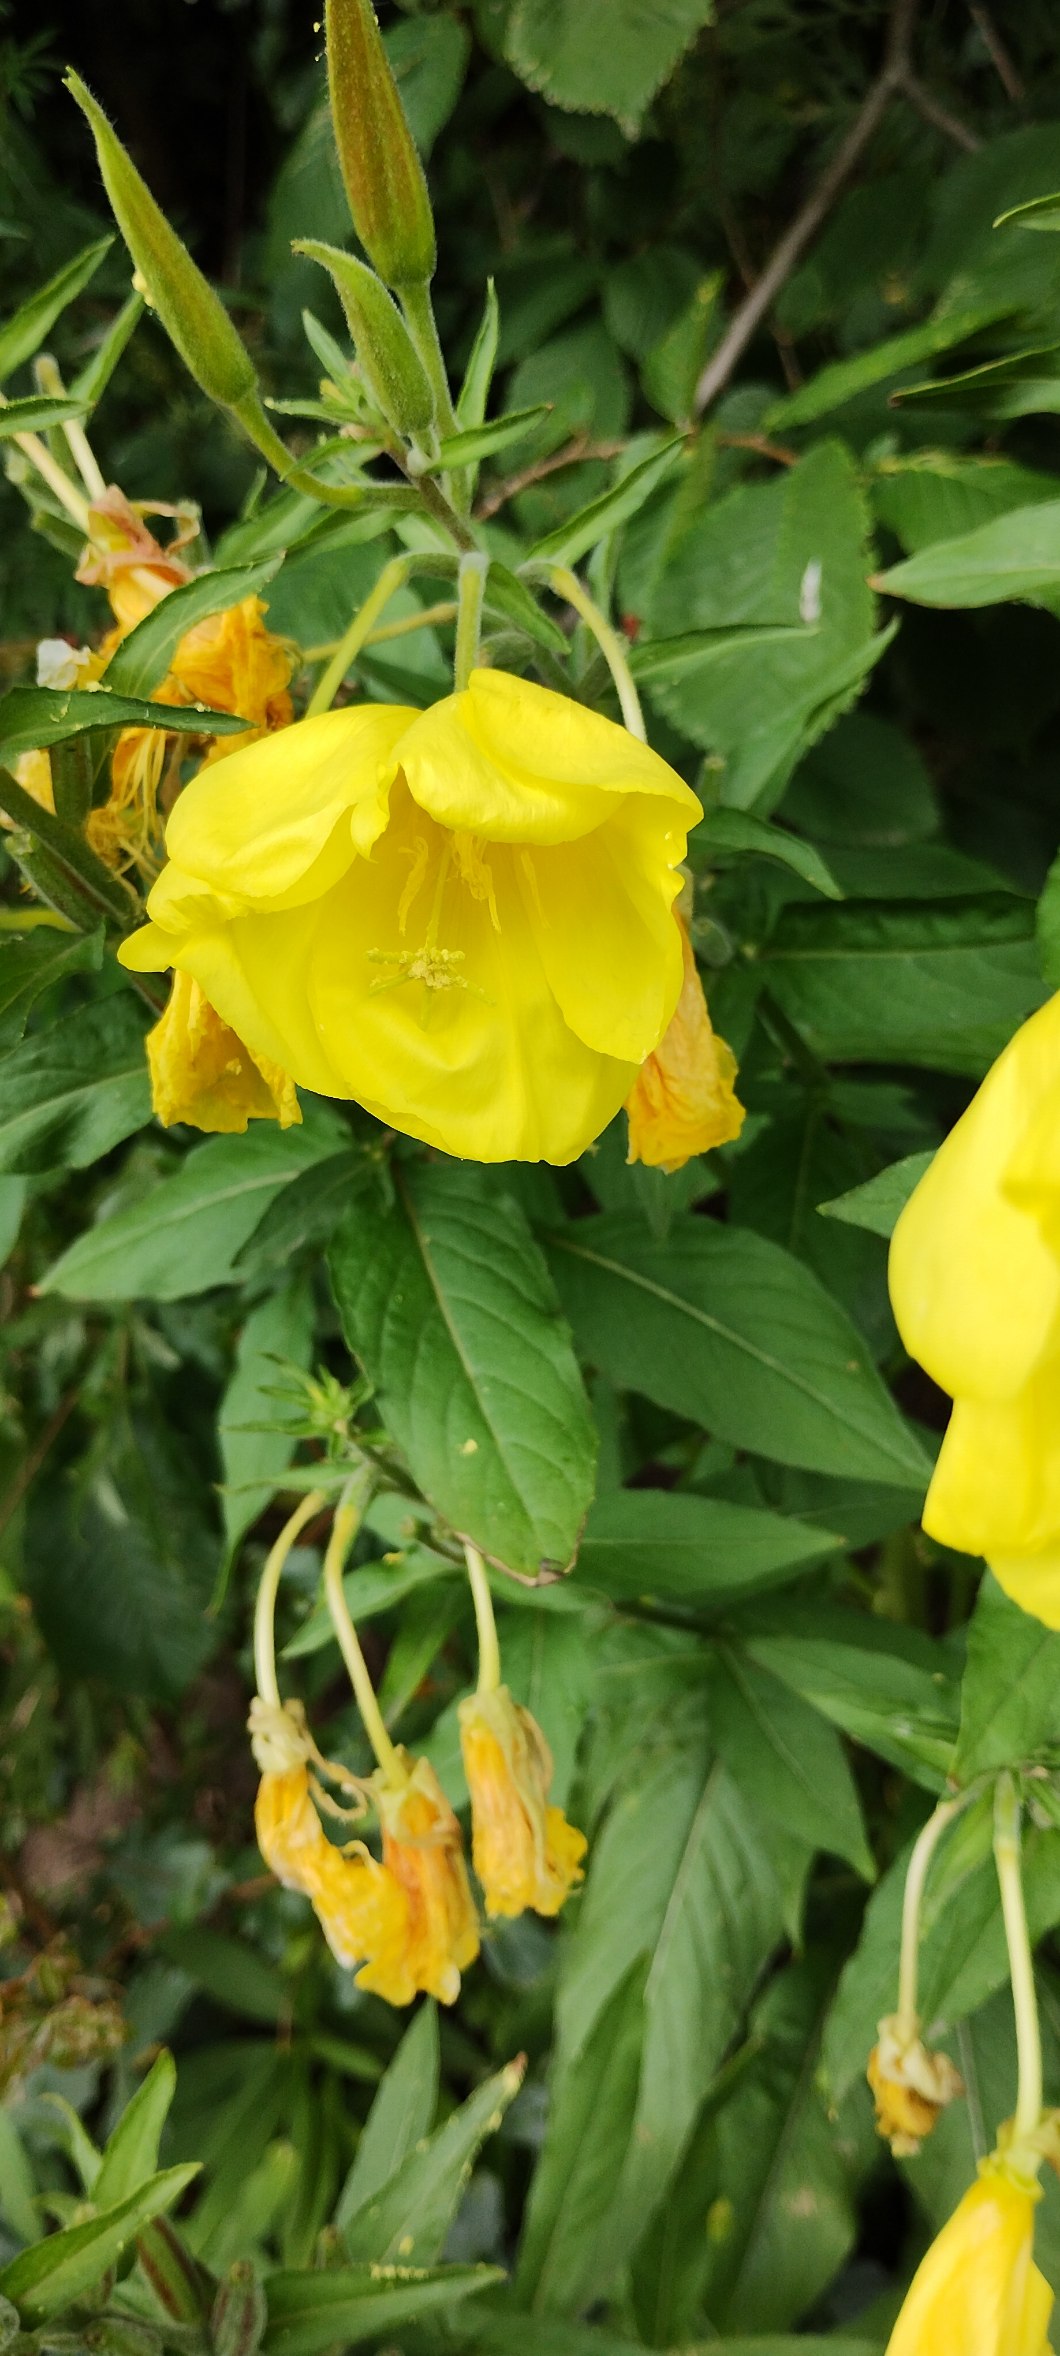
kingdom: Plantae
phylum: Tracheophyta
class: Magnoliopsida
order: Myrtales
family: Onagraceae
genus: Oenothera
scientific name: Oenothera glazioviana
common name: Kæmpe-natlys
